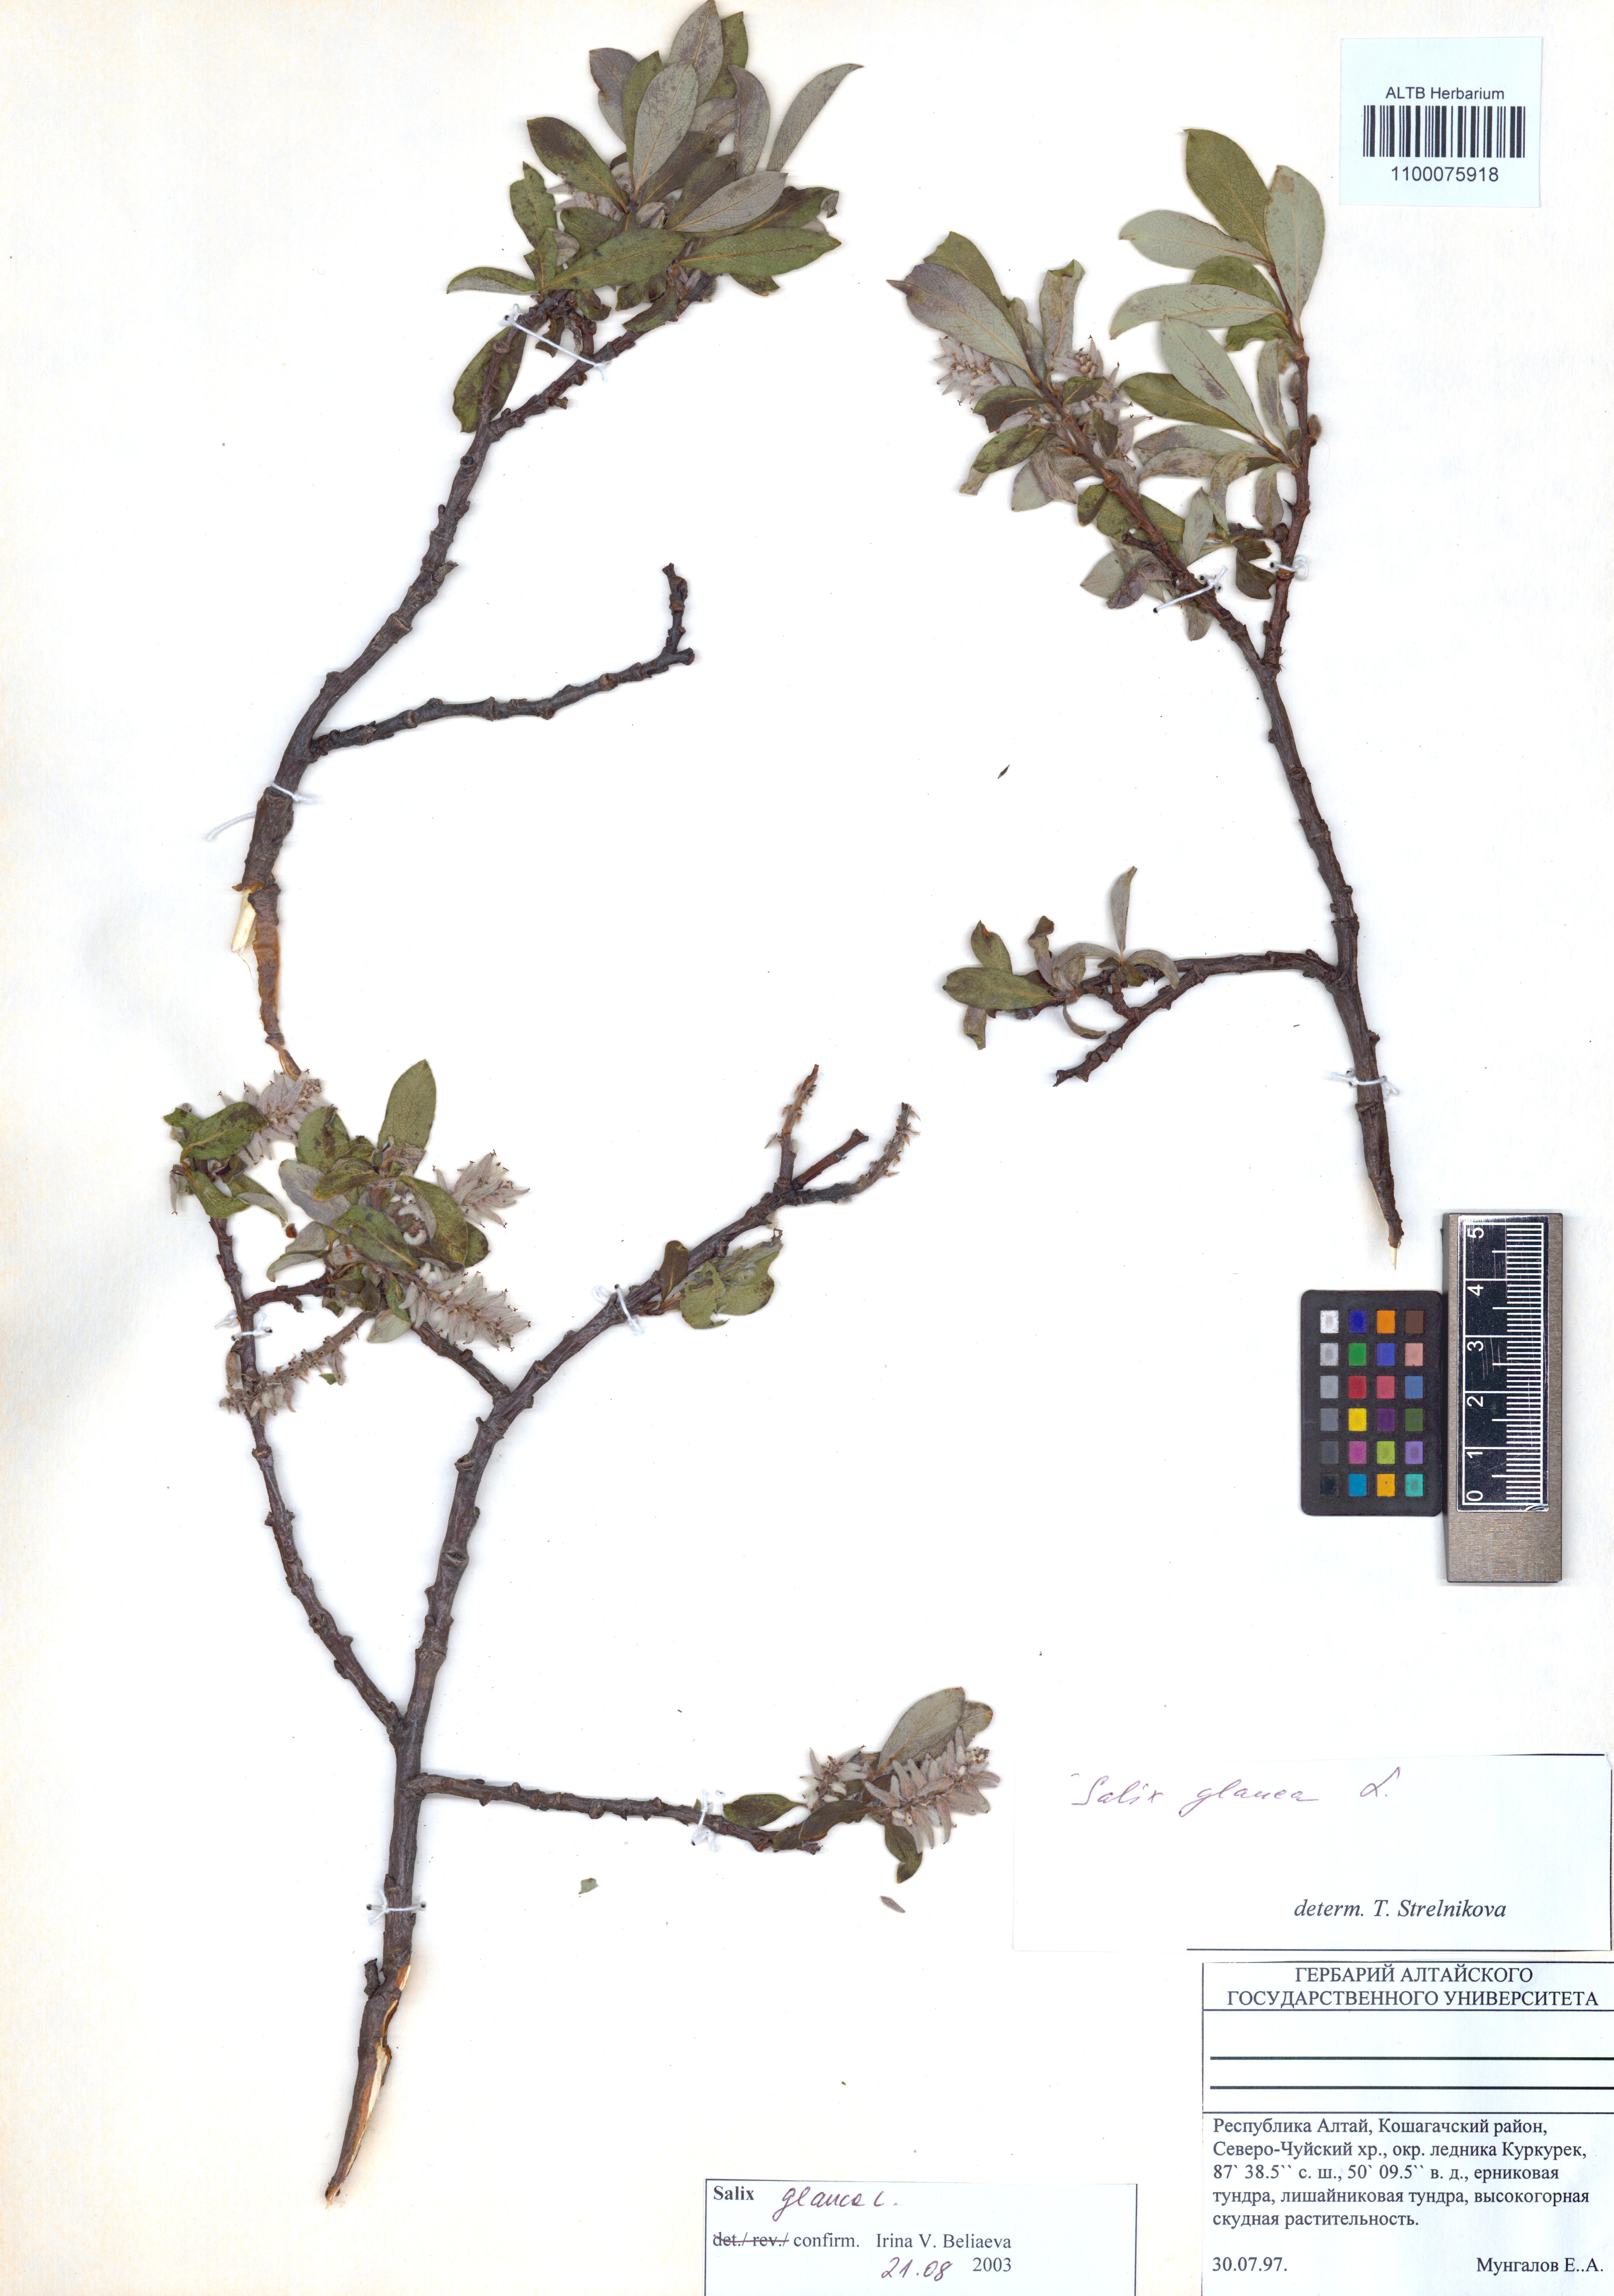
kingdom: Plantae
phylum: Tracheophyta
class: Magnoliopsida
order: Malpighiales
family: Salicaceae
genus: Salix
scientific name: Salix glauca
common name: Glaucous willow
